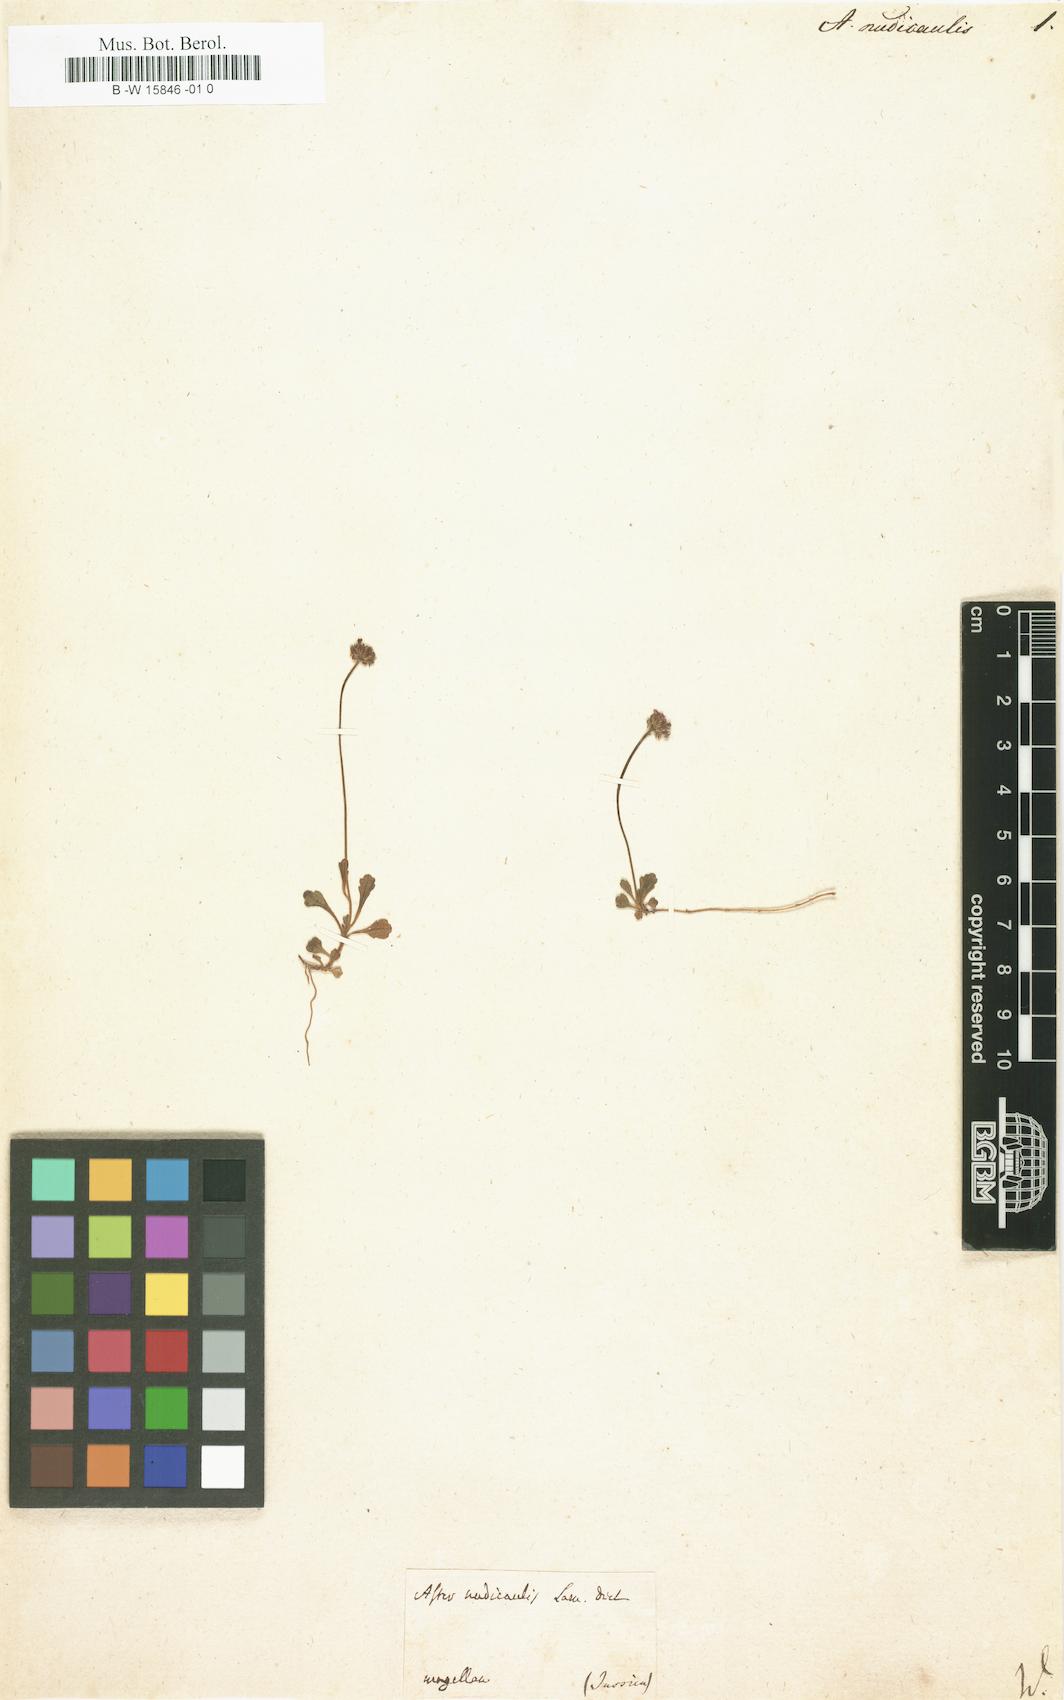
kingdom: Plantae
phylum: Tracheophyta
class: Magnoliopsida
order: Asterales
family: Asteraceae
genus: Lagenophora
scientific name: Lagenophora nudicaulis
